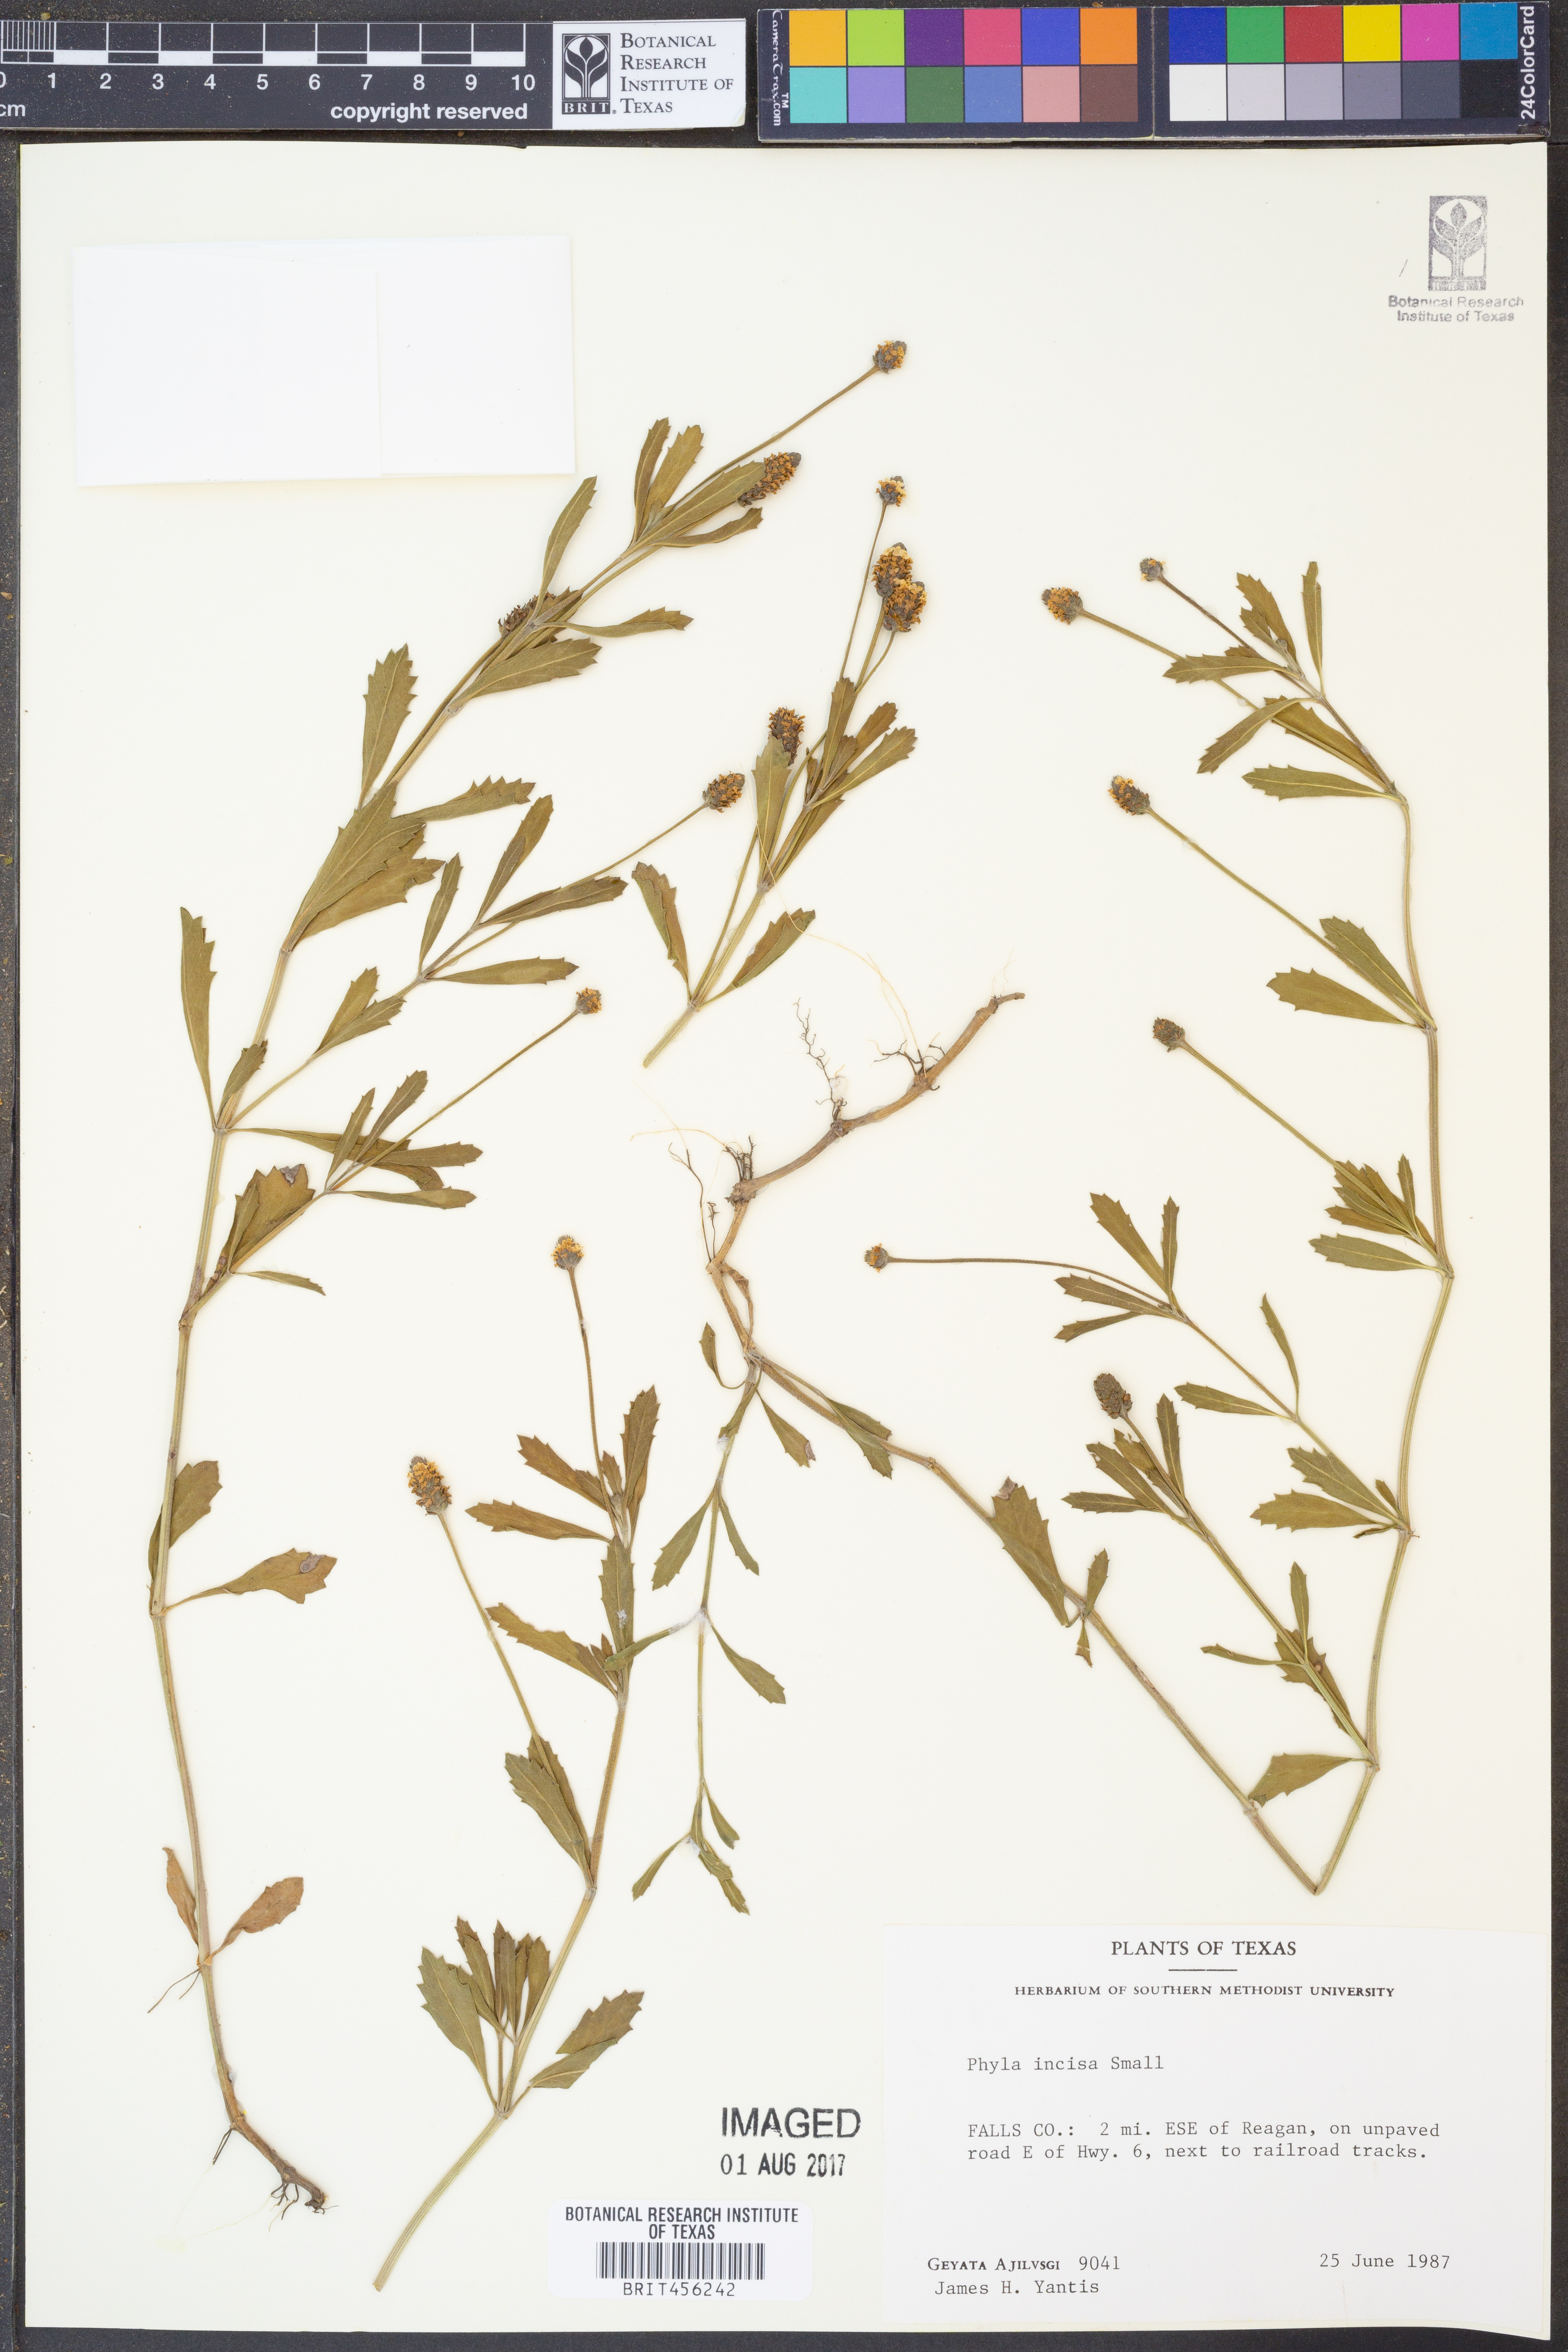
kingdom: Plantae
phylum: Tracheophyta
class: Magnoliopsida
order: Lamiales
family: Verbenaceae
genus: Phyla
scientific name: Phyla nodiflora
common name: Frogfruit
